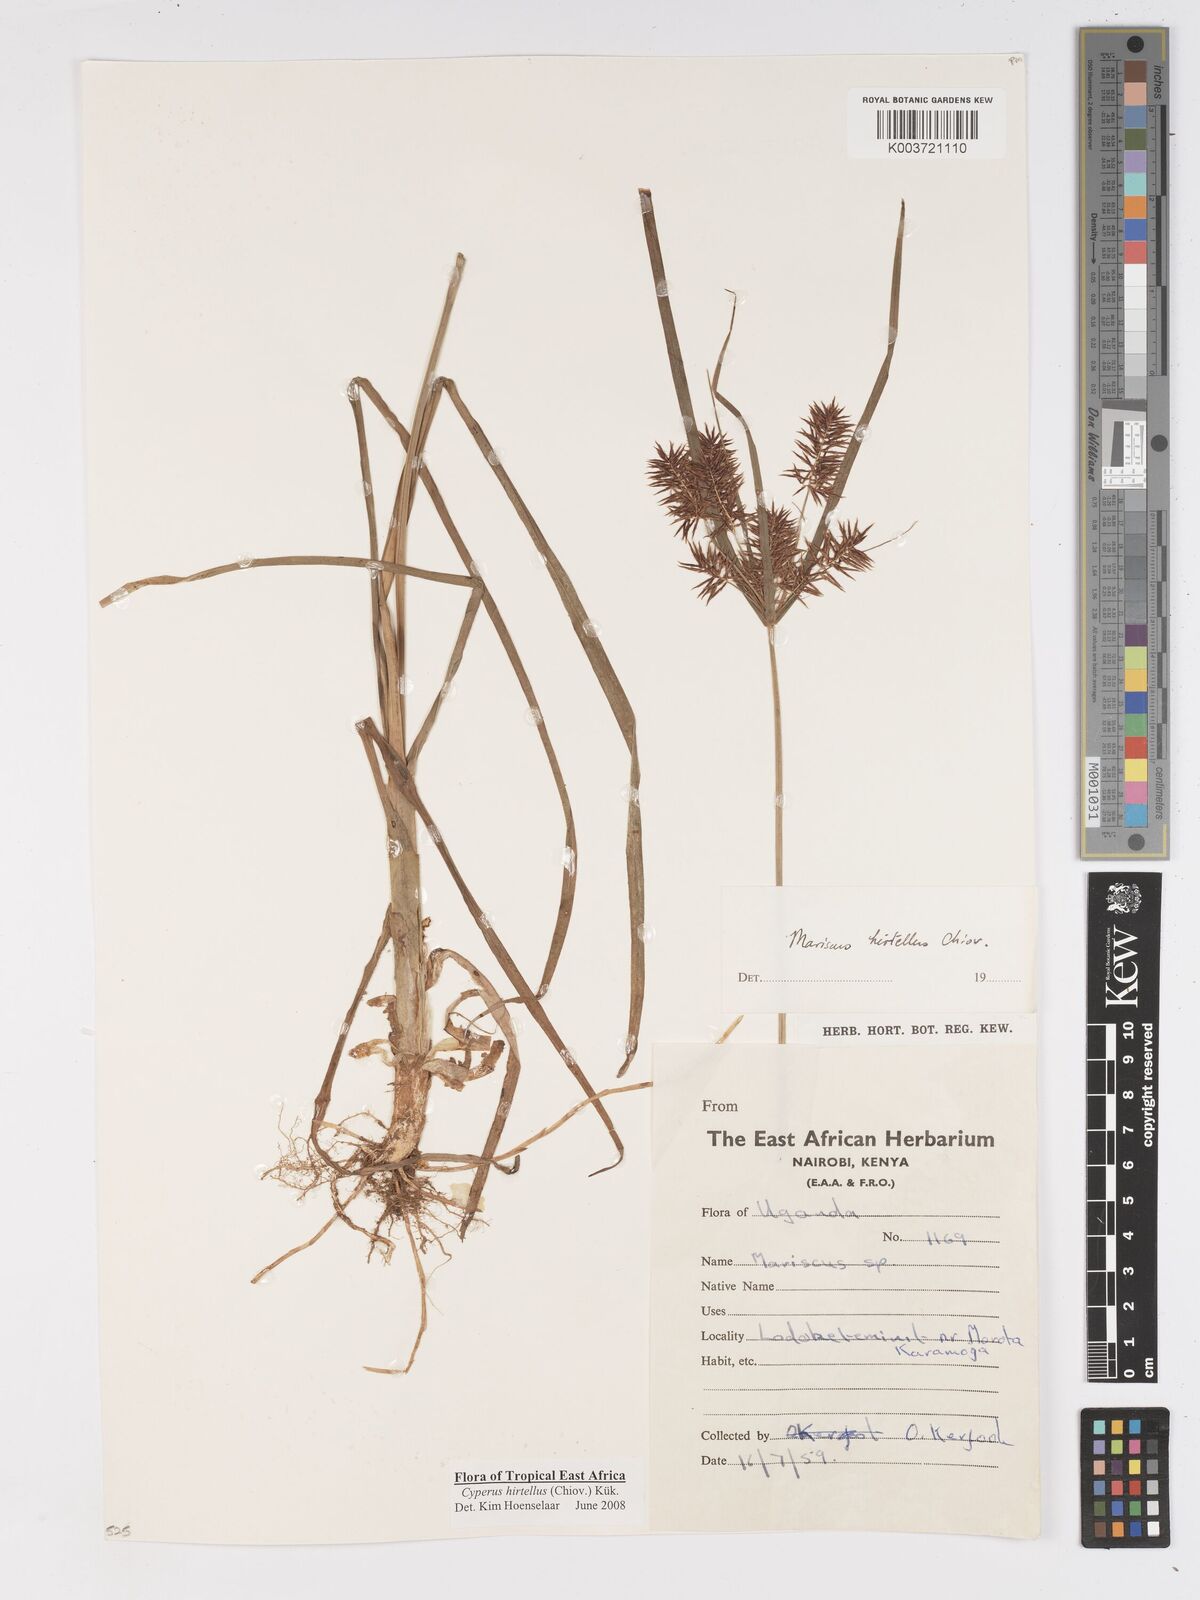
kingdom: Plantae
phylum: Tracheophyta
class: Liliopsida
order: Poales
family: Cyperaceae
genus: Cyperus
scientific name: Cyperus hirtellus
